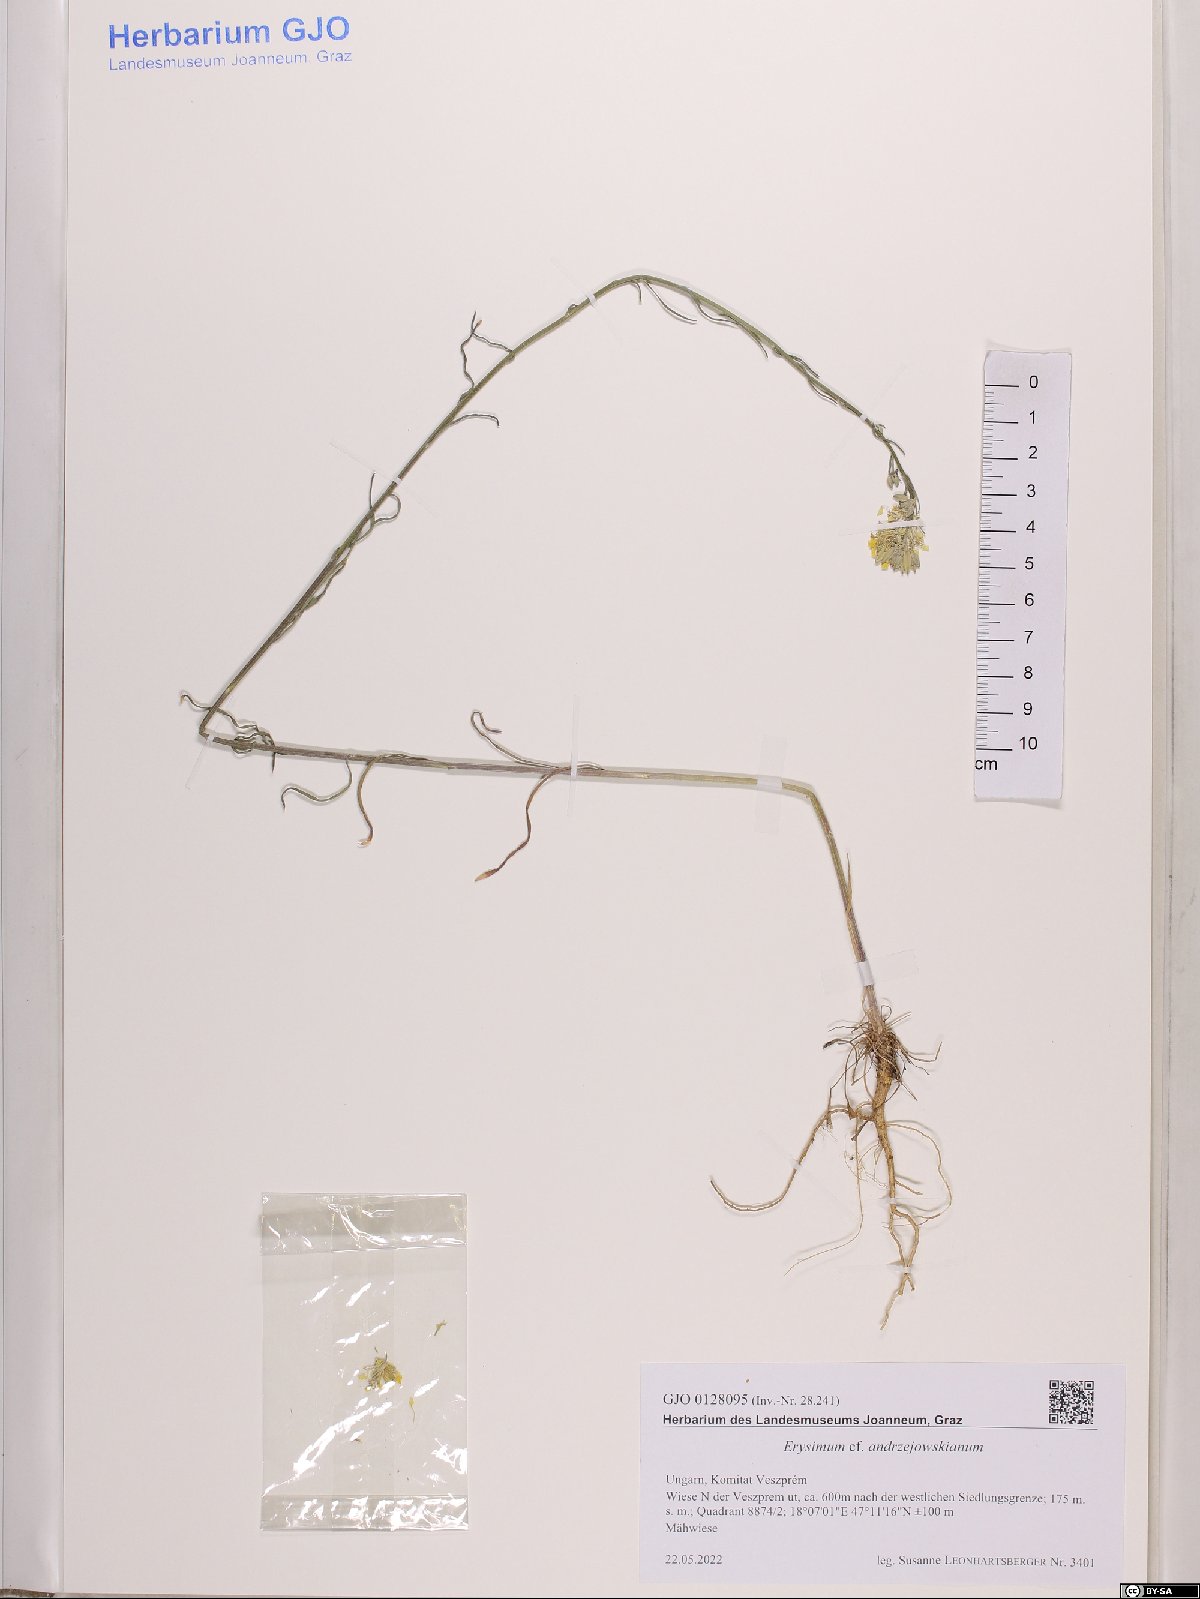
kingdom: Plantae
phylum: Tracheophyta
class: Magnoliopsida
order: Brassicales
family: Brassicaceae
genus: Erysimum
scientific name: Erysimum andrzejowskianum
